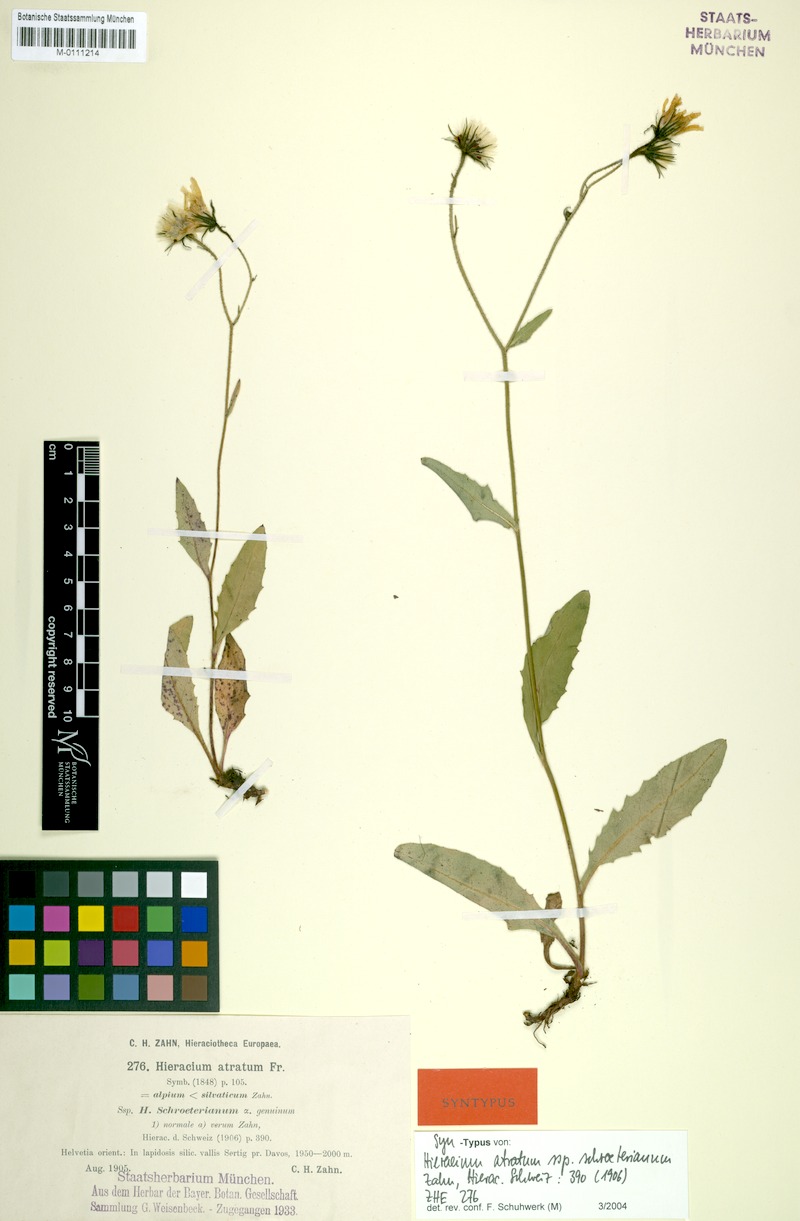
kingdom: Plantae
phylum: Tracheophyta
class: Magnoliopsida
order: Asterales
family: Asteraceae
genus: Hieracium
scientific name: Hieracium atratum
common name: Polar hawkweed
